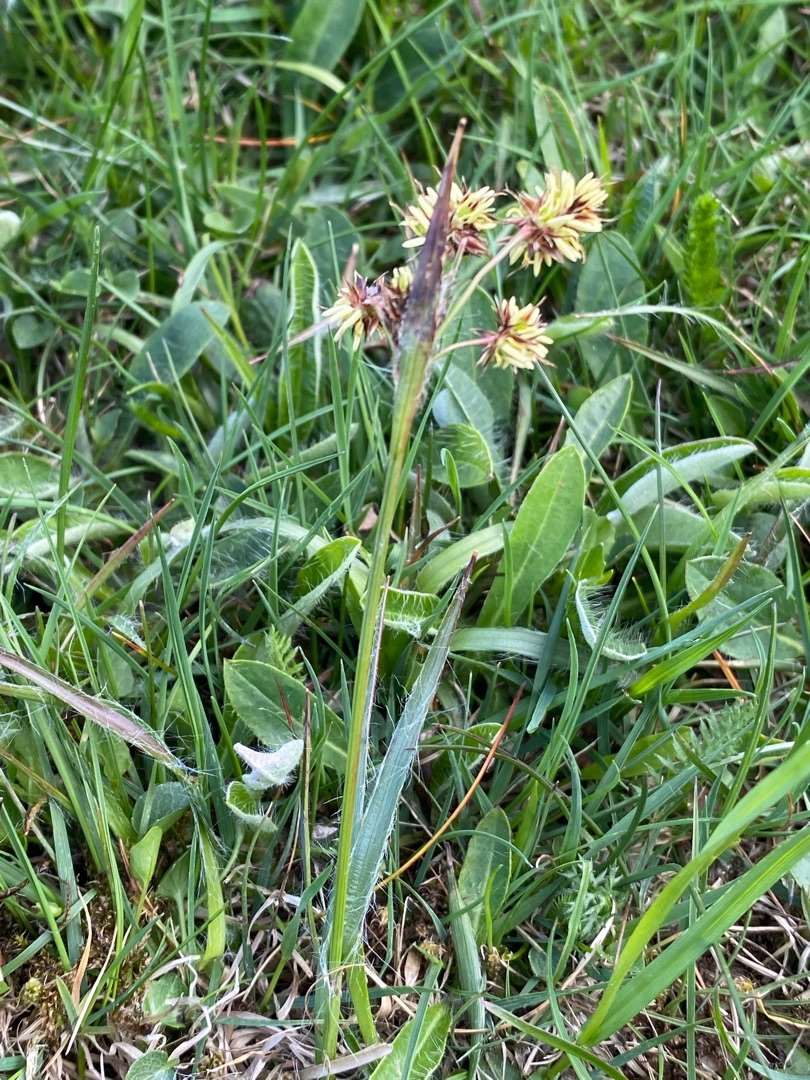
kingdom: Plantae
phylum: Tracheophyta
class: Liliopsida
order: Poales
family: Juncaceae
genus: Luzula
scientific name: Luzula campestris
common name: Mark-frytle
